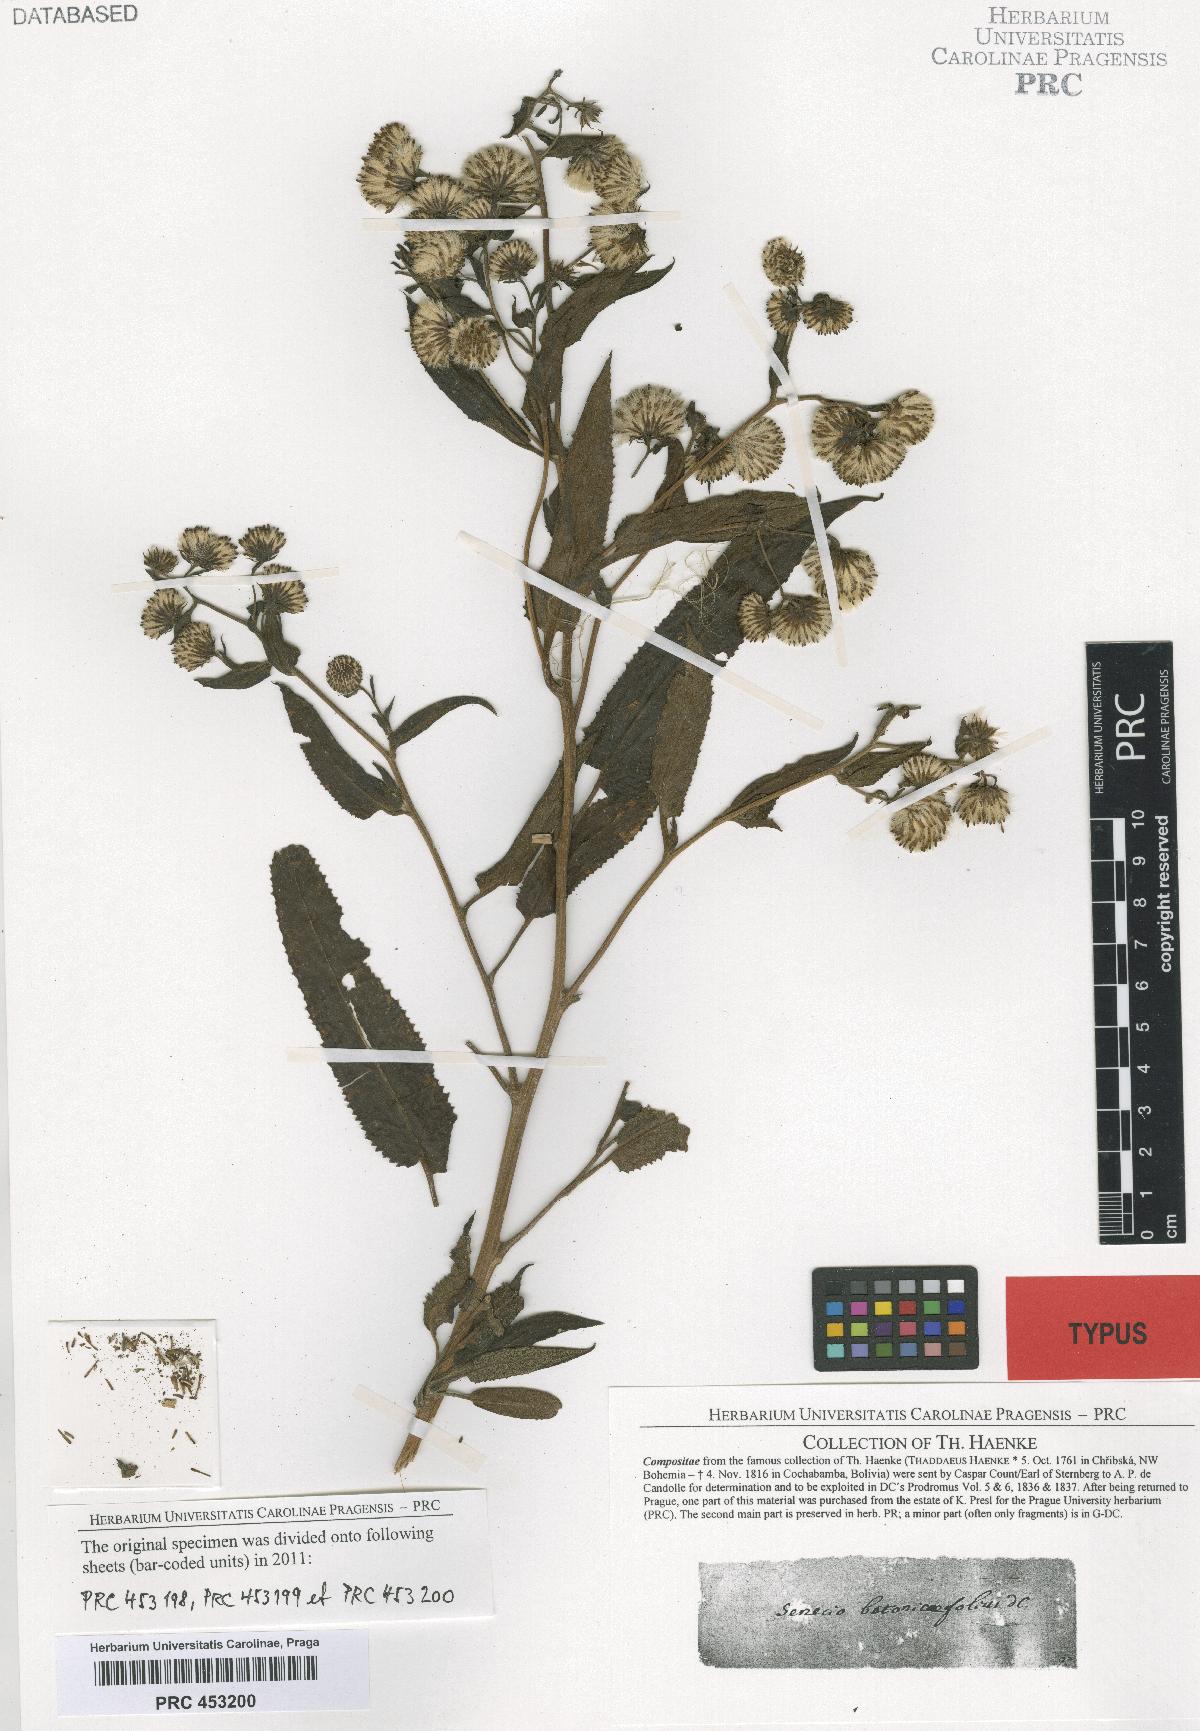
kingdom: Plantae
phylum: Tracheophyta
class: Magnoliopsida
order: Asterales
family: Asteraceae
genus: Aetheolaena
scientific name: Aetheolaena betonicifolia
